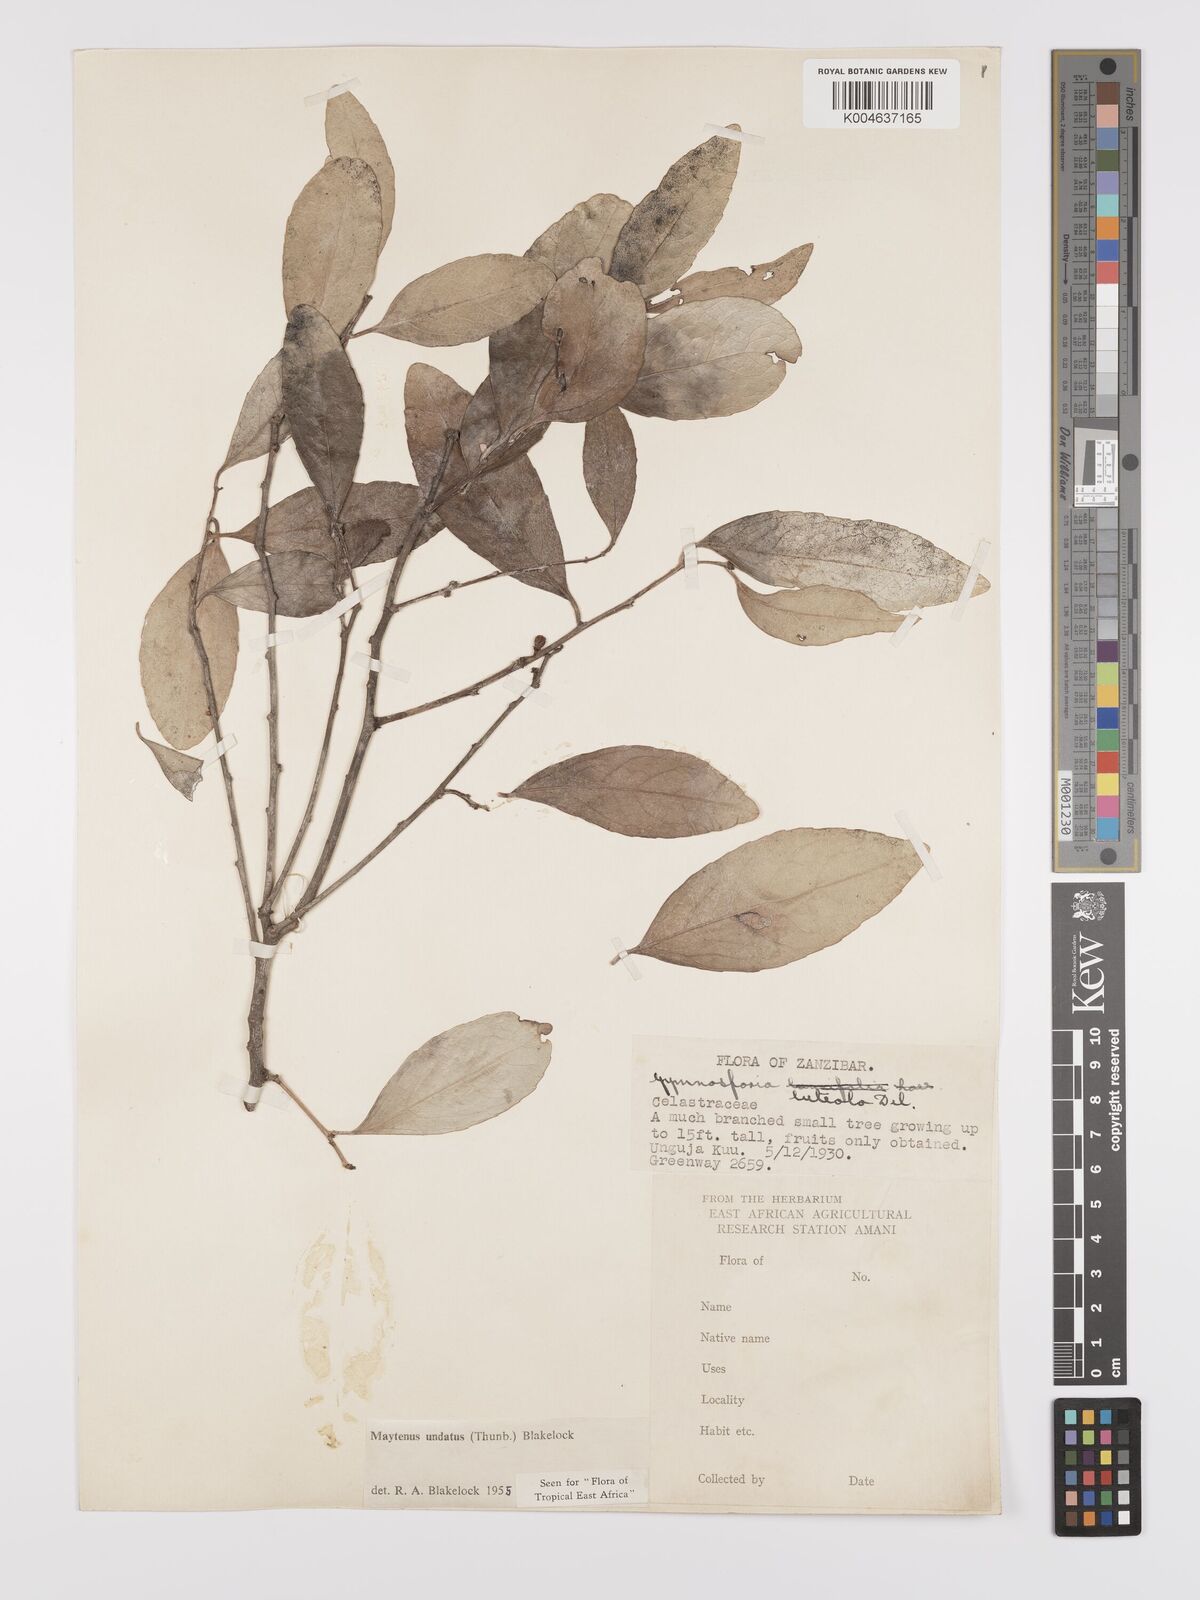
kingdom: Plantae
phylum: Tracheophyta
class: Magnoliopsida
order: Celastrales
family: Celastraceae
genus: Gymnosporia
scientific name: Gymnosporia undata
